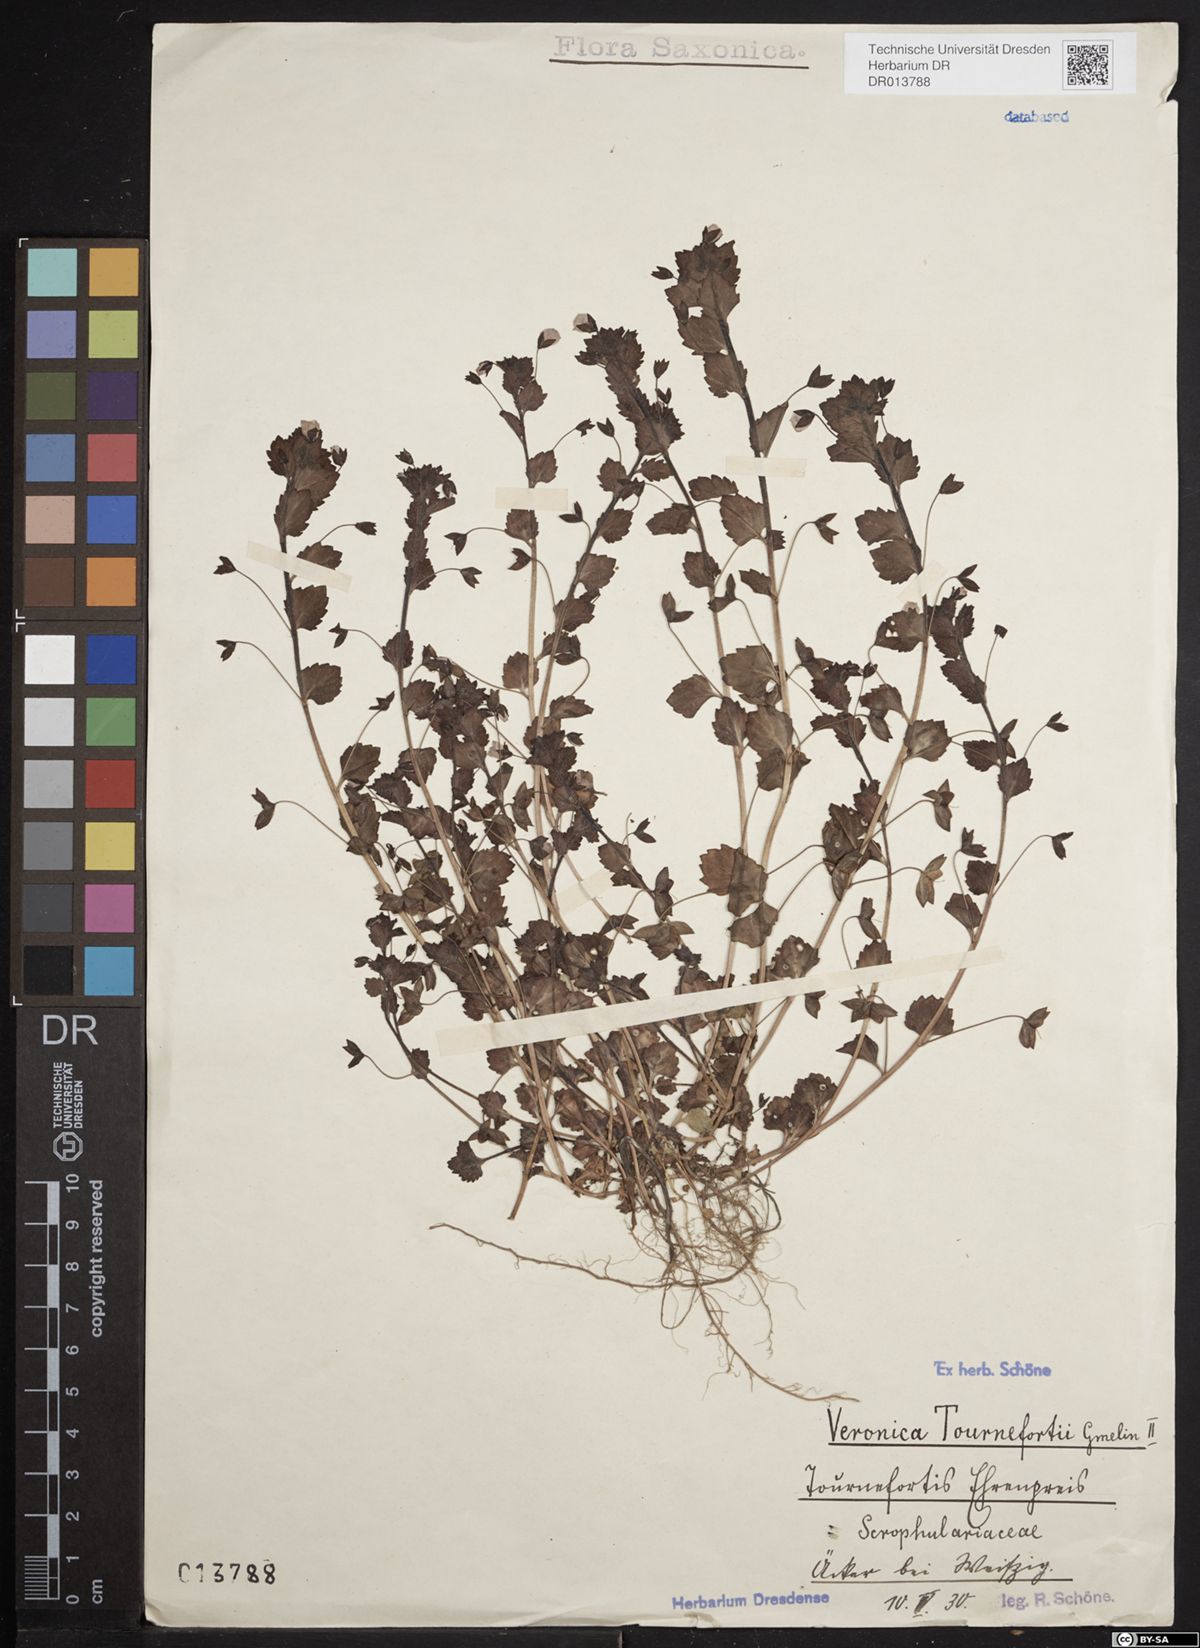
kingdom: Plantae
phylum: Tracheophyta
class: Magnoliopsida
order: Lamiales
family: Plantaginaceae
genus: Veronica
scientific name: Veronica persica
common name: Common field-speedwell
